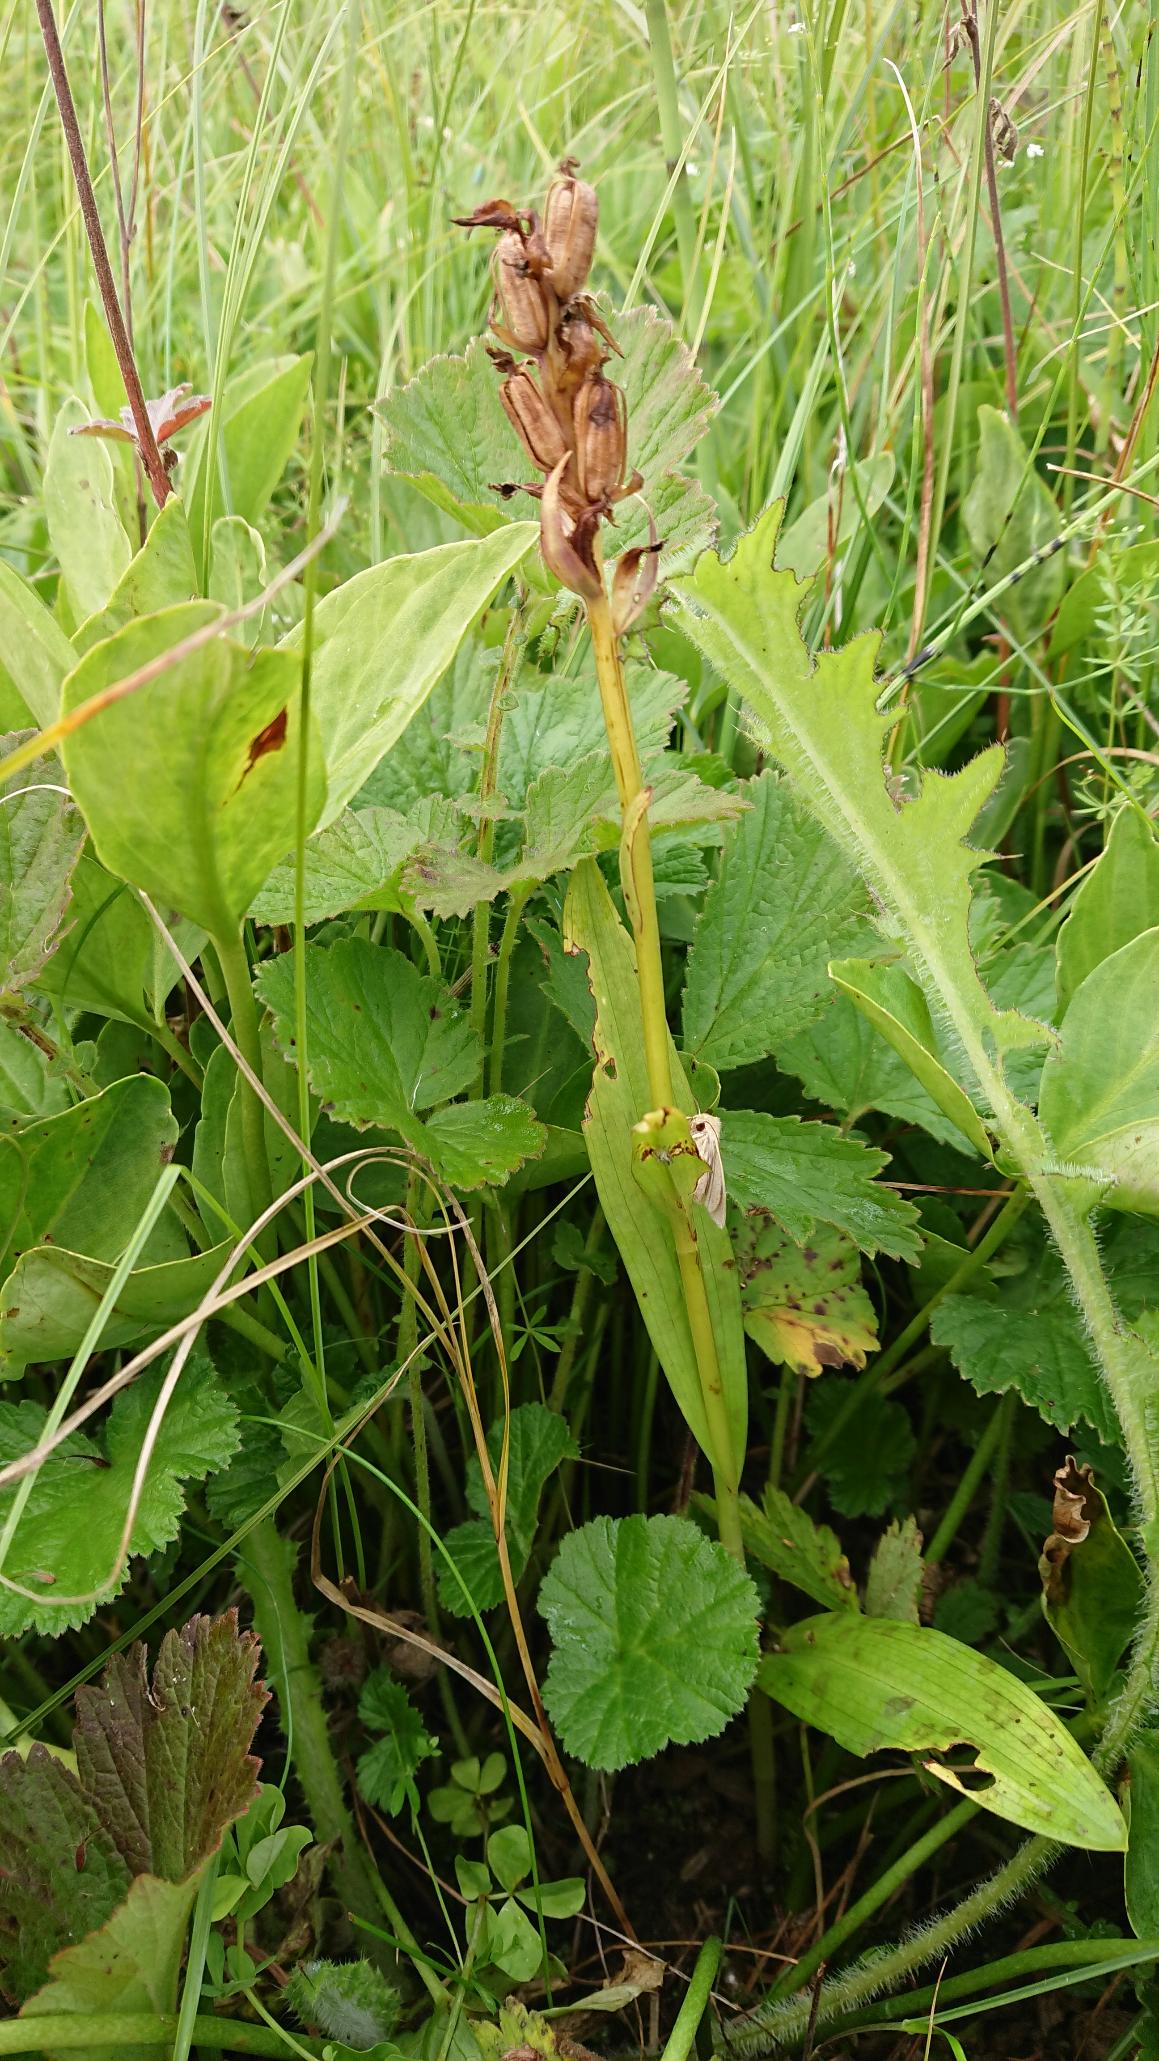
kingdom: Plantae
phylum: Tracheophyta
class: Liliopsida
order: Asparagales
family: Orchidaceae
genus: Dactylorhiza
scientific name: Dactylorhiza majalis
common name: Maj-gøgeurt (underart)
